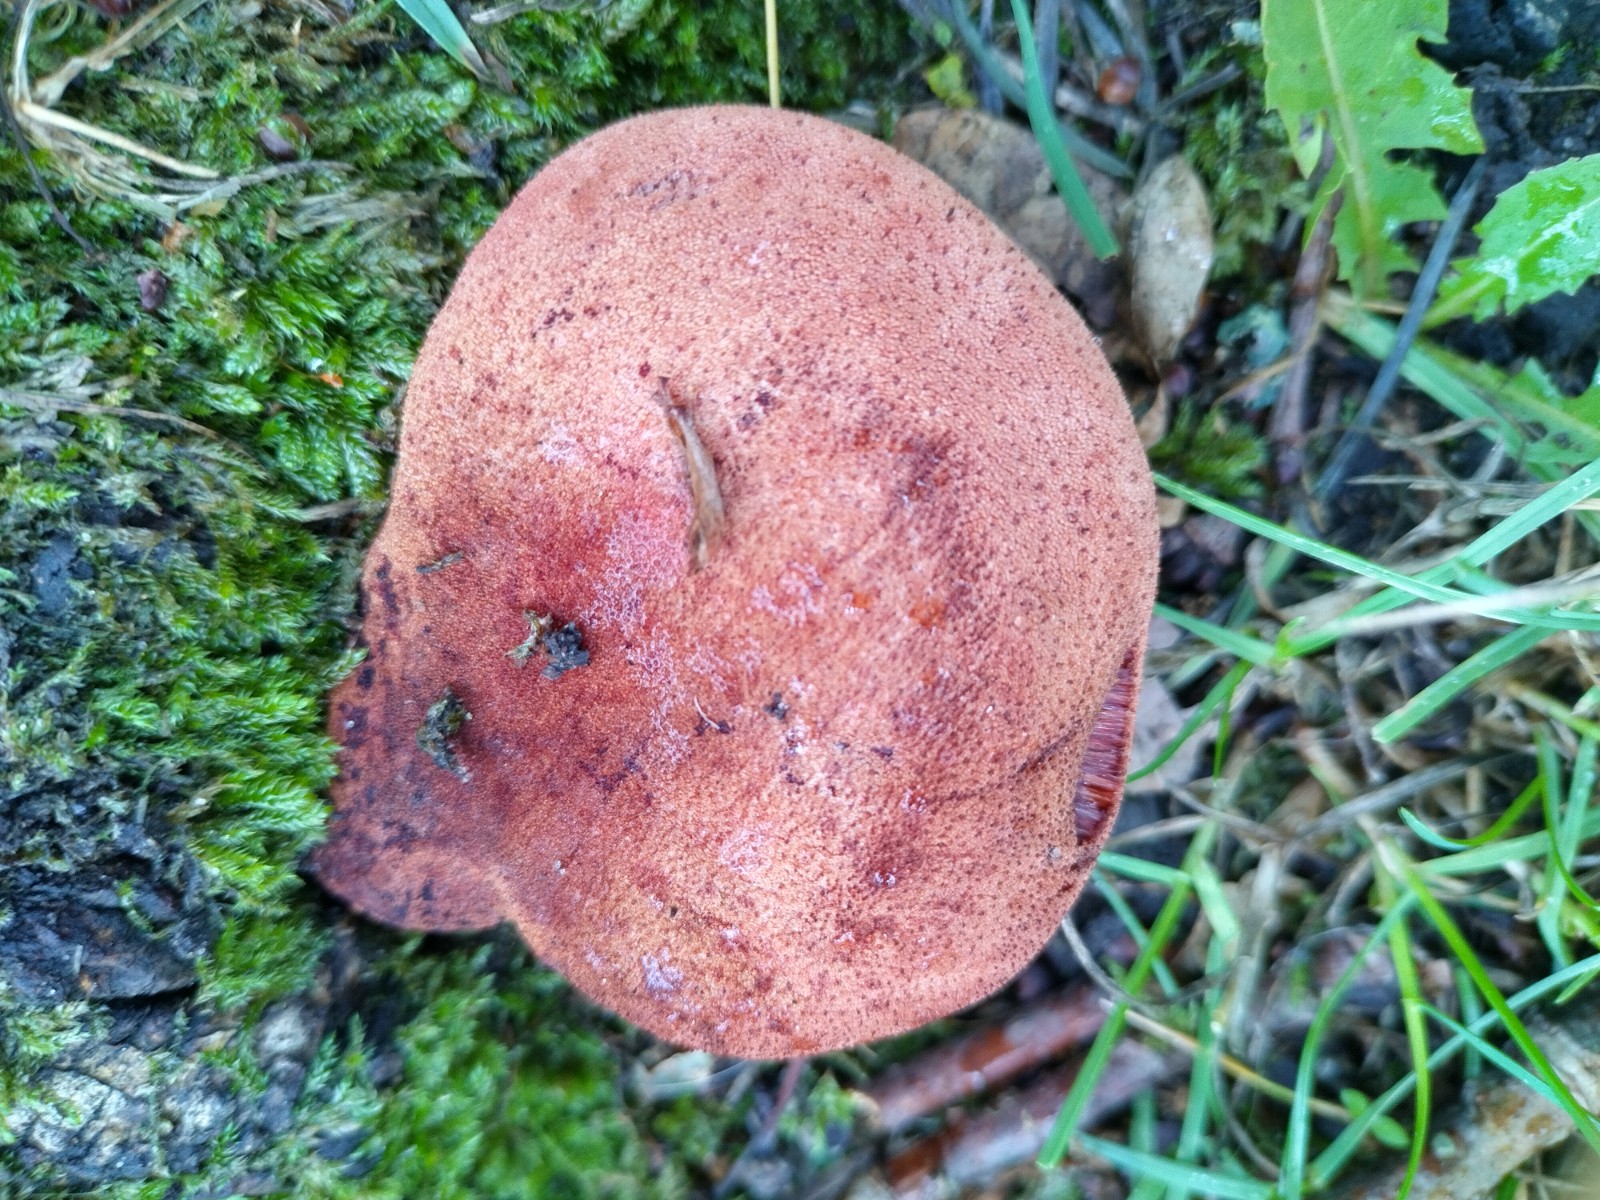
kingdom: Fungi
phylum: Basidiomycota
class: Agaricomycetes
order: Agaricales
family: Fistulinaceae
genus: Fistulina
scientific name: Fistulina hepatica
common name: oksetunge
